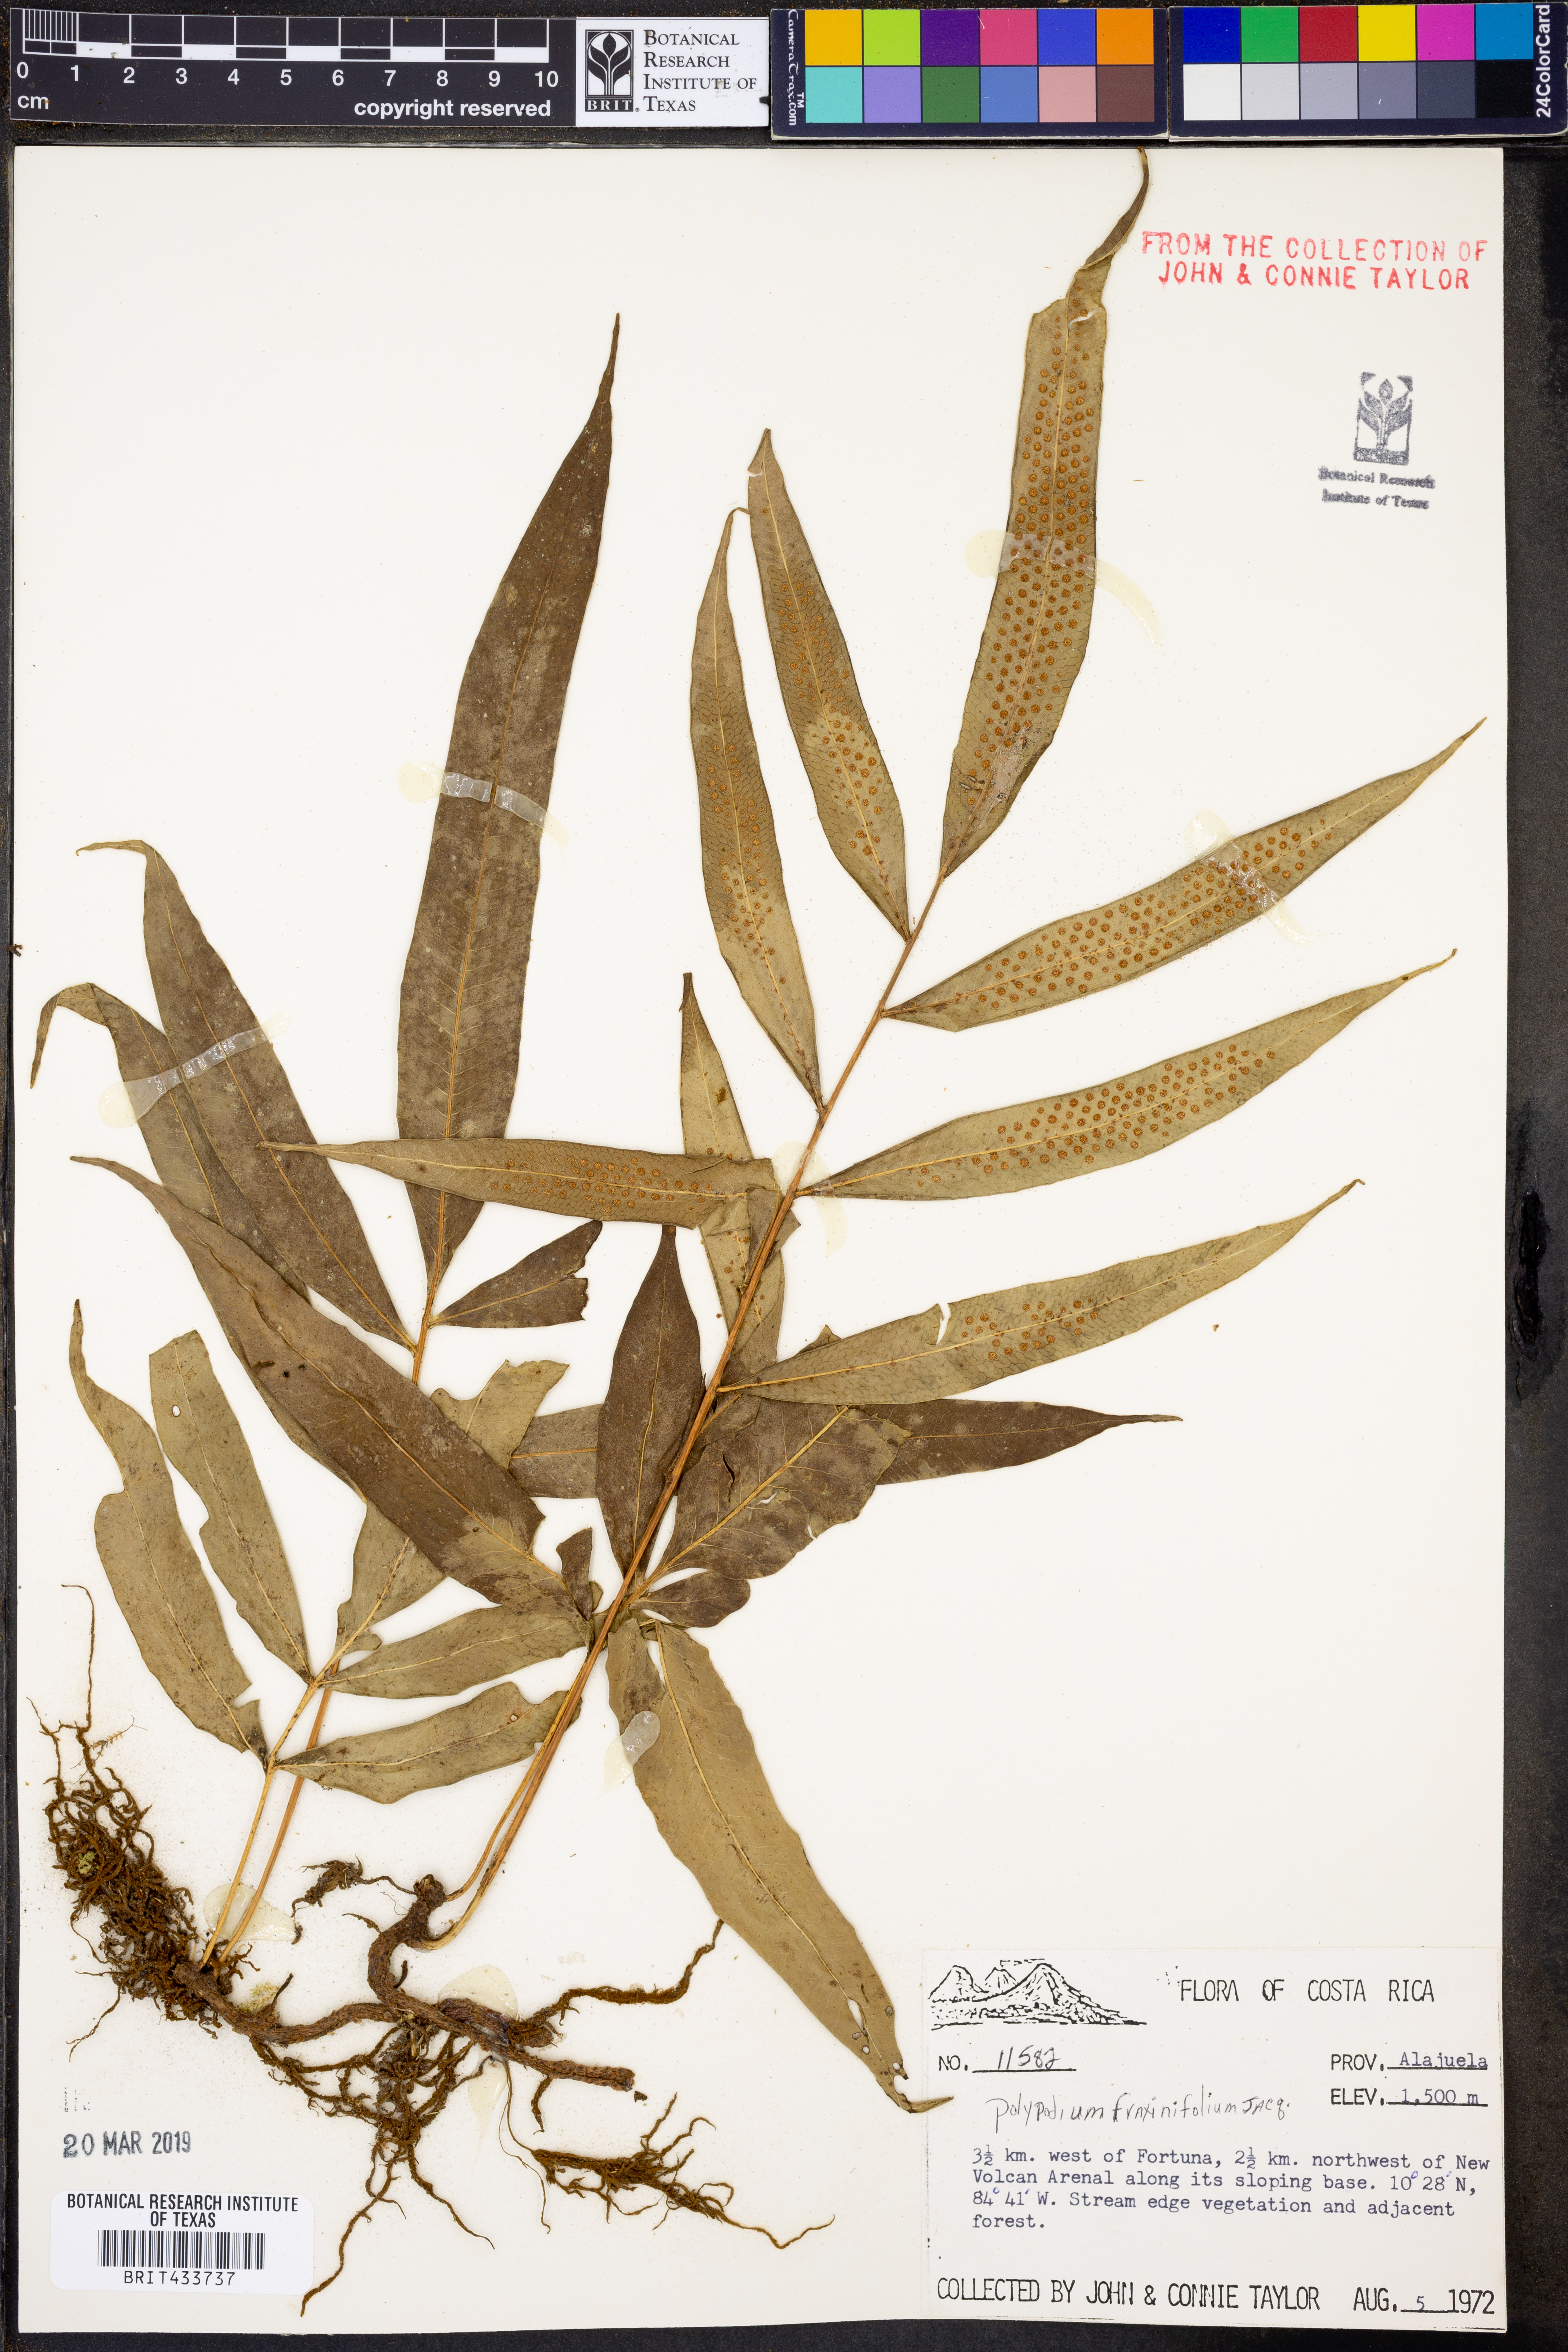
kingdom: Plantae
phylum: Tracheophyta
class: Polypodiopsida
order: Polypodiales
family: Polypodiaceae
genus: Serpocaulon
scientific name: Serpocaulon fraxinifolium
